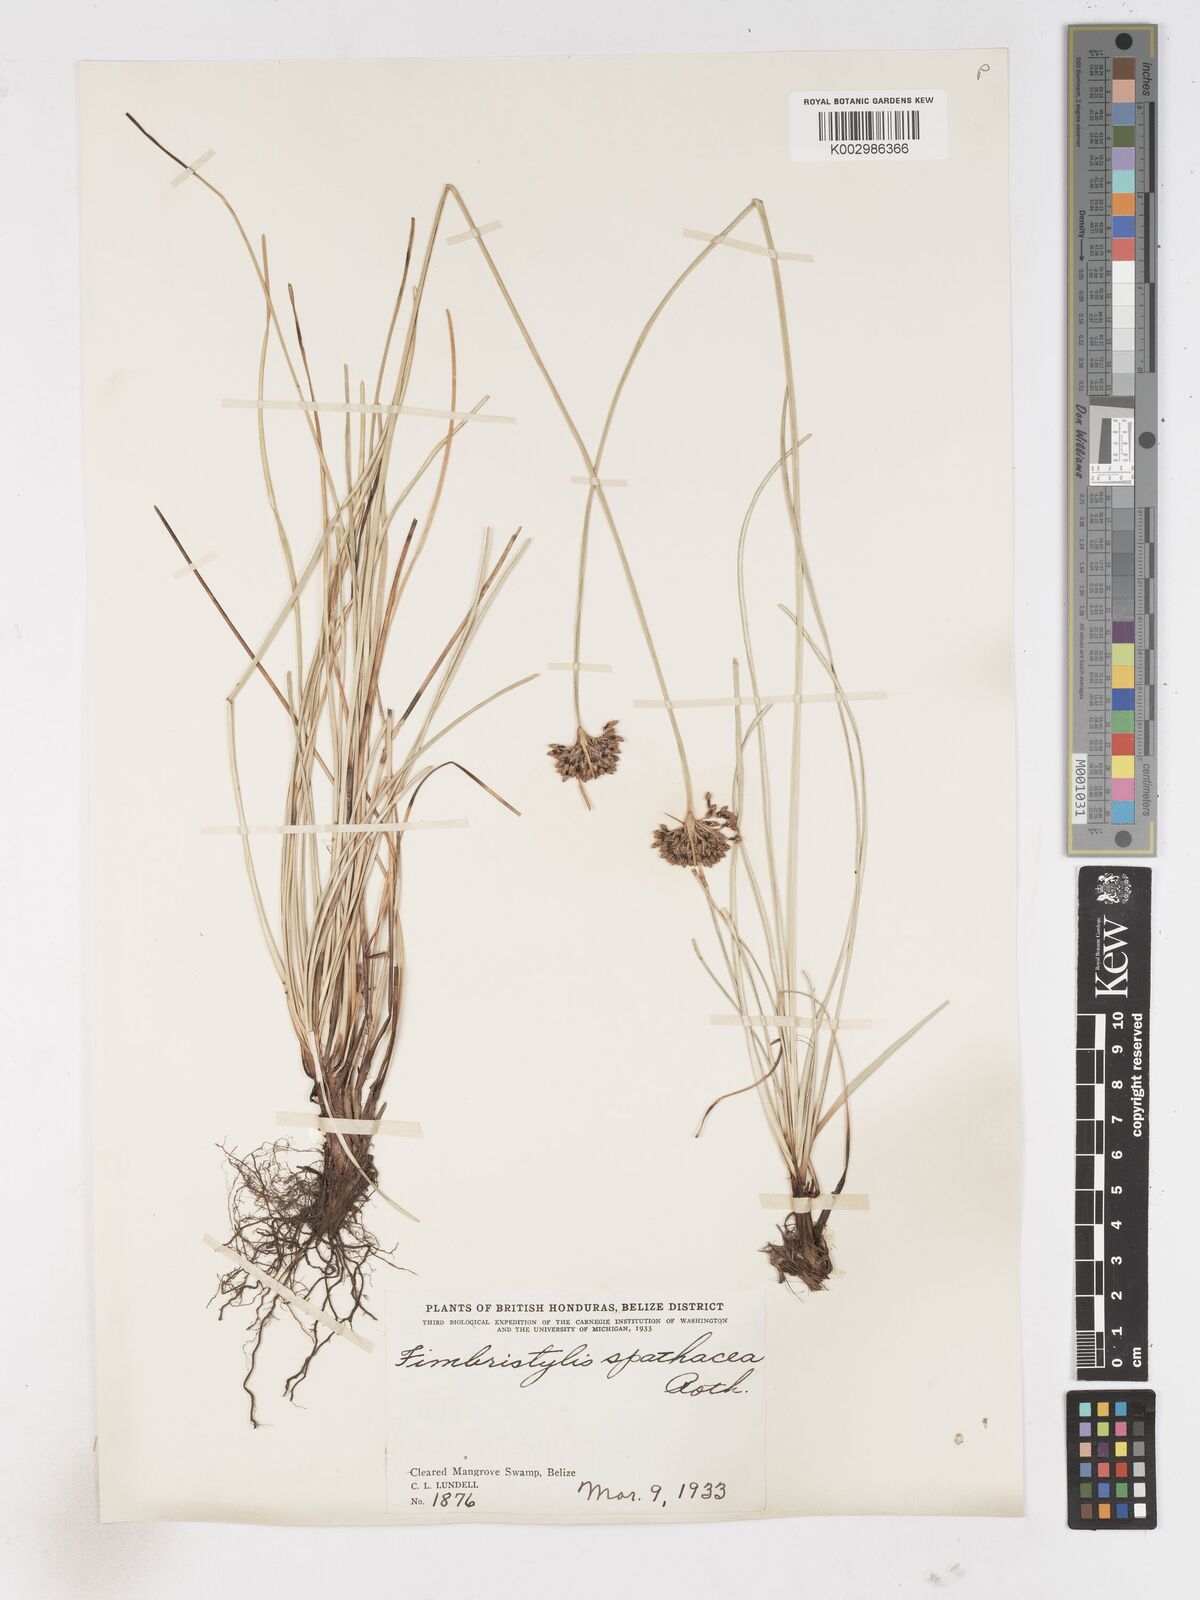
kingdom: Plantae
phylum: Tracheophyta
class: Liliopsida
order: Poales
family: Cyperaceae
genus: Fimbristylis
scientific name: Fimbristylis cymosa
